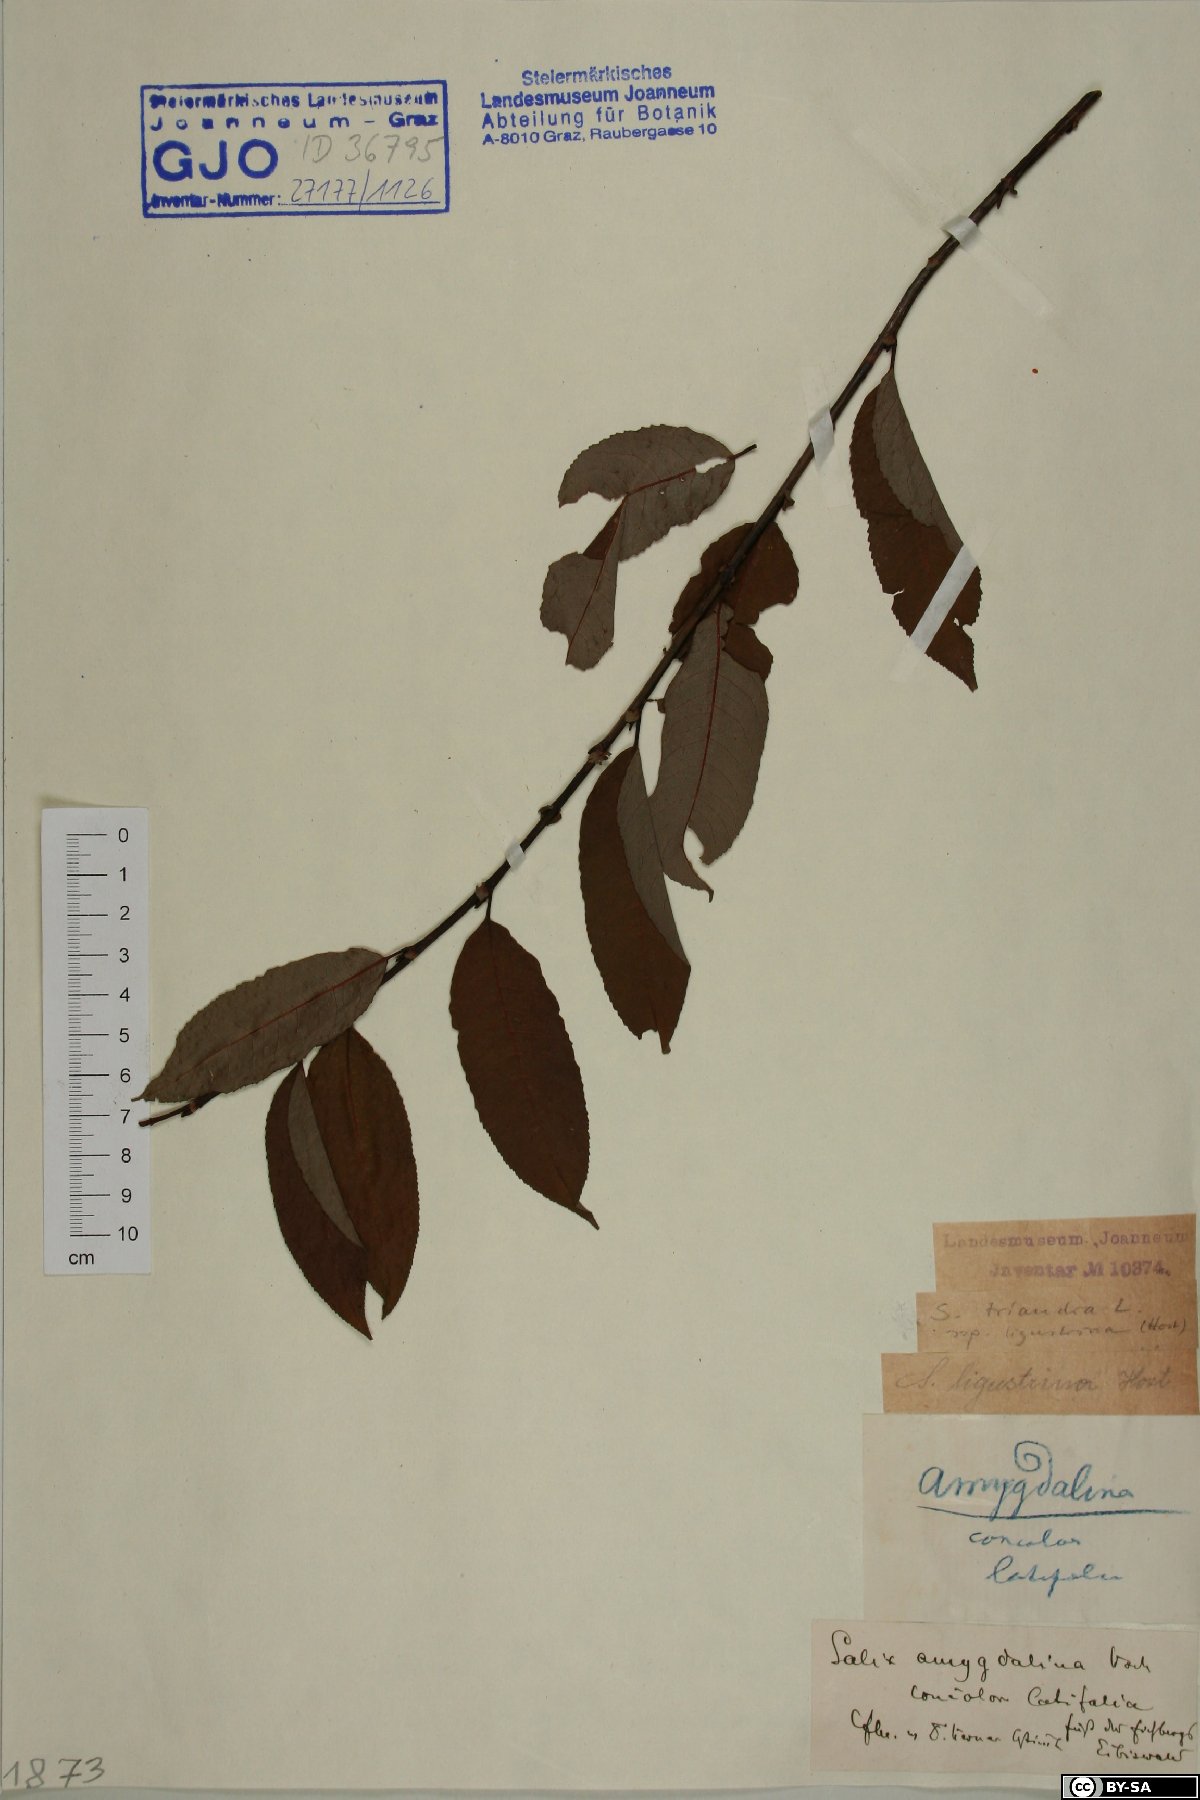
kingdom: Plantae
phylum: Tracheophyta
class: Magnoliopsida
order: Malpighiales
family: Salicaceae
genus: Salix
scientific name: Salix triandra
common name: Almond willow
